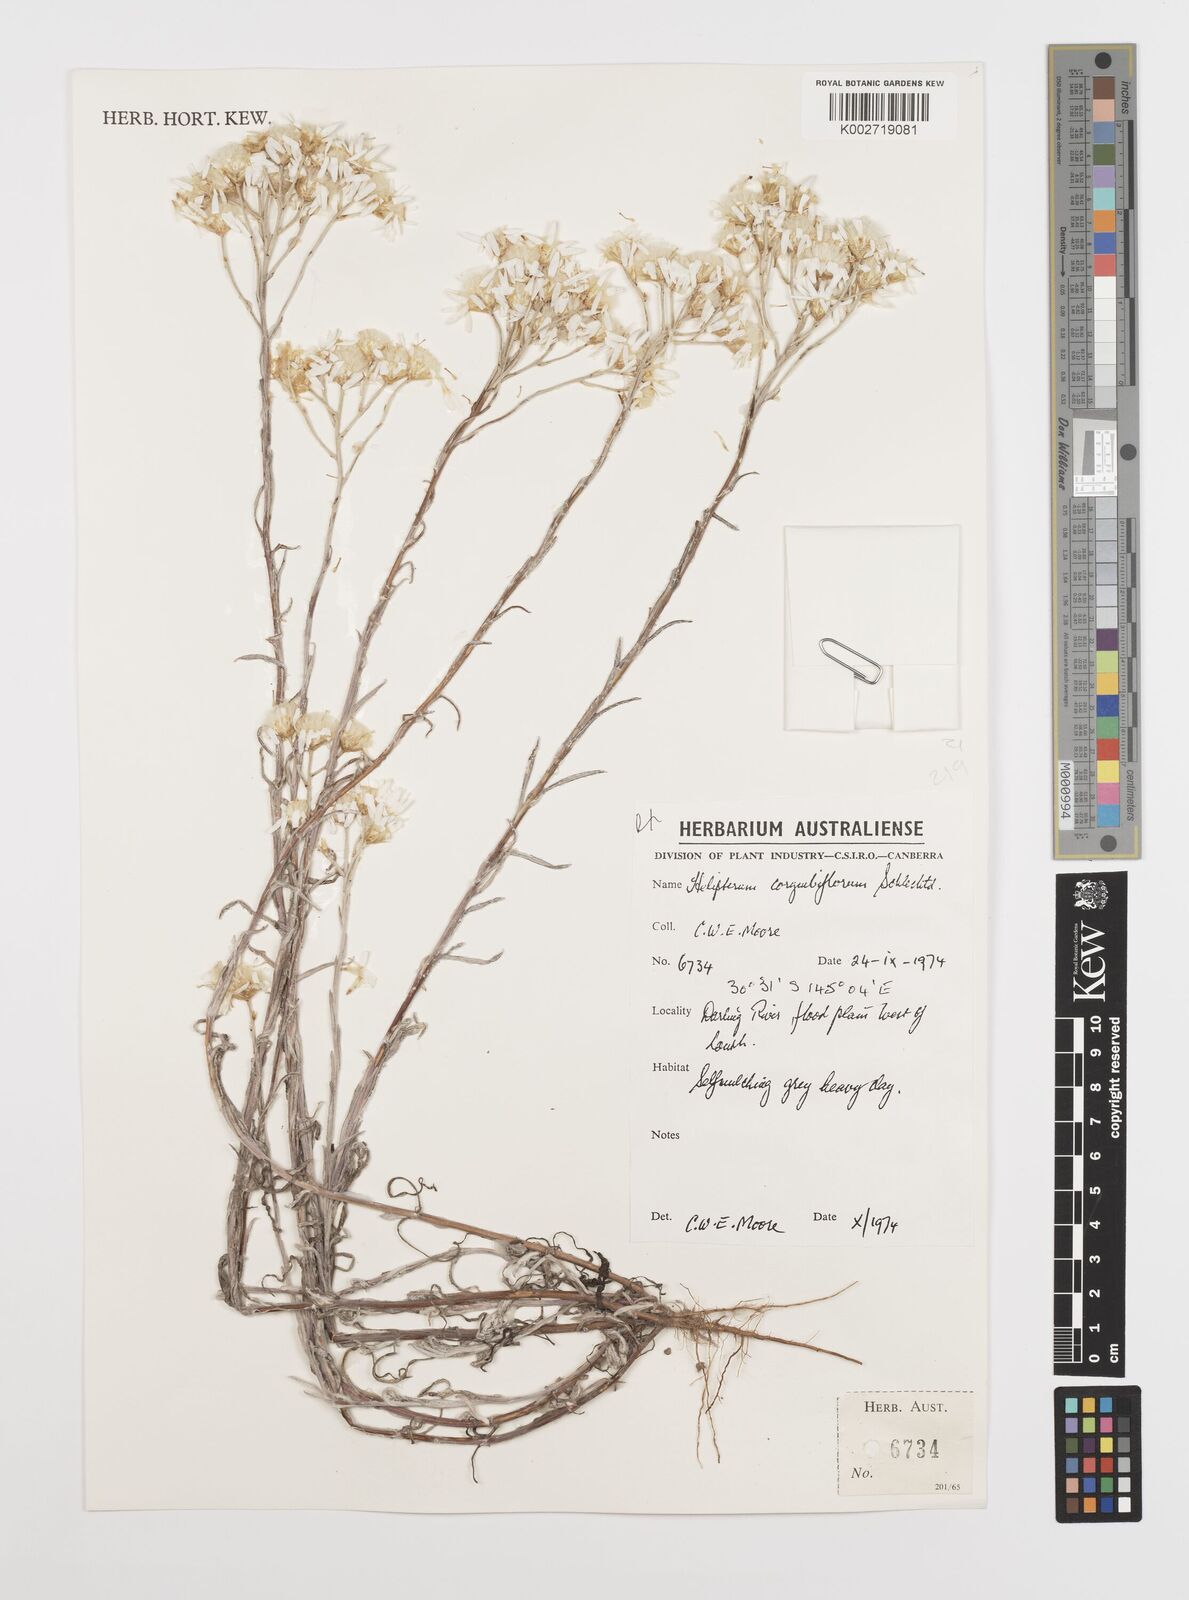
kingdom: Plantae
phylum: Tracheophyta
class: Magnoliopsida
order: Asterales
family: Asteraceae
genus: Rhodanthe
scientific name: Rhodanthe corymbiflora
